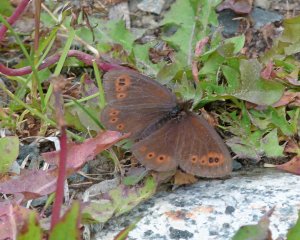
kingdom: Animalia
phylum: Arthropoda
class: Insecta
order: Lepidoptera
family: Nymphalidae
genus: Erebia
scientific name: Erebia epipsodea
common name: Common Alpine
